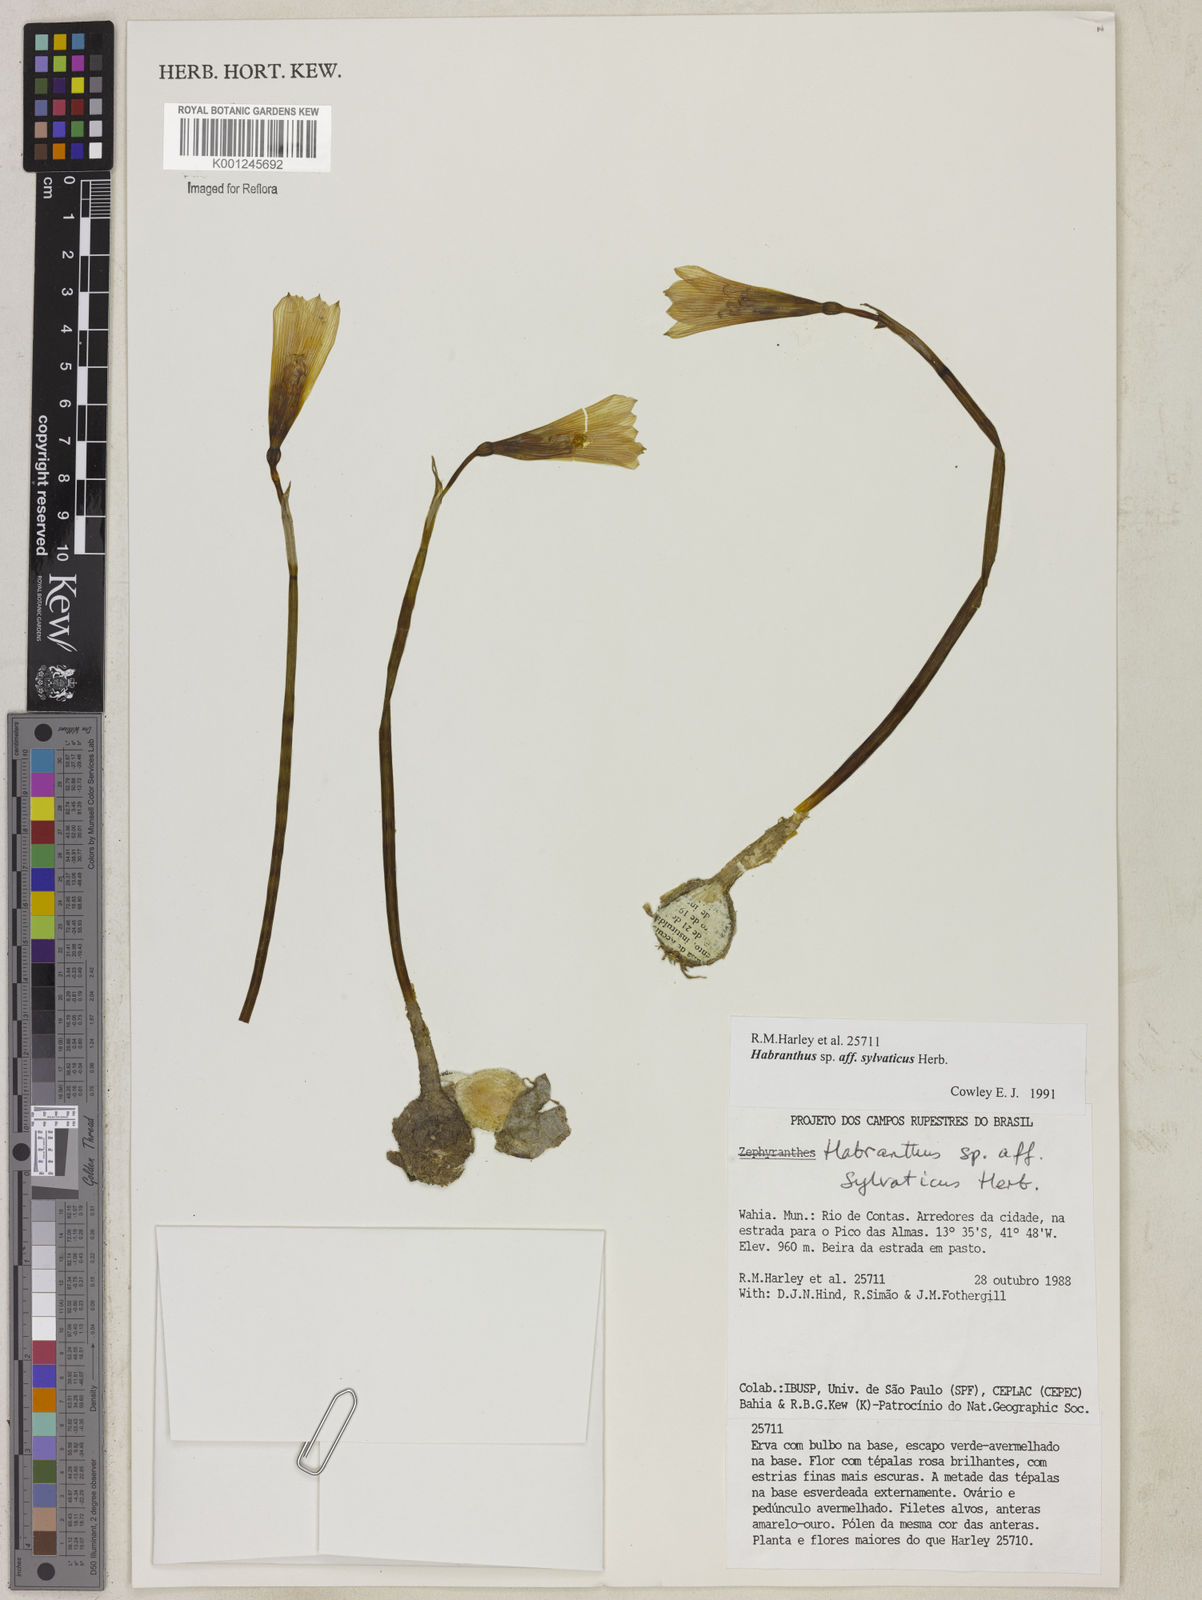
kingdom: Plantae
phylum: Tracheophyta
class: Liliopsida
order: Asparagales
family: Amaryllidaceae
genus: Zephyranthes
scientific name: Zephyranthes sylvatica
